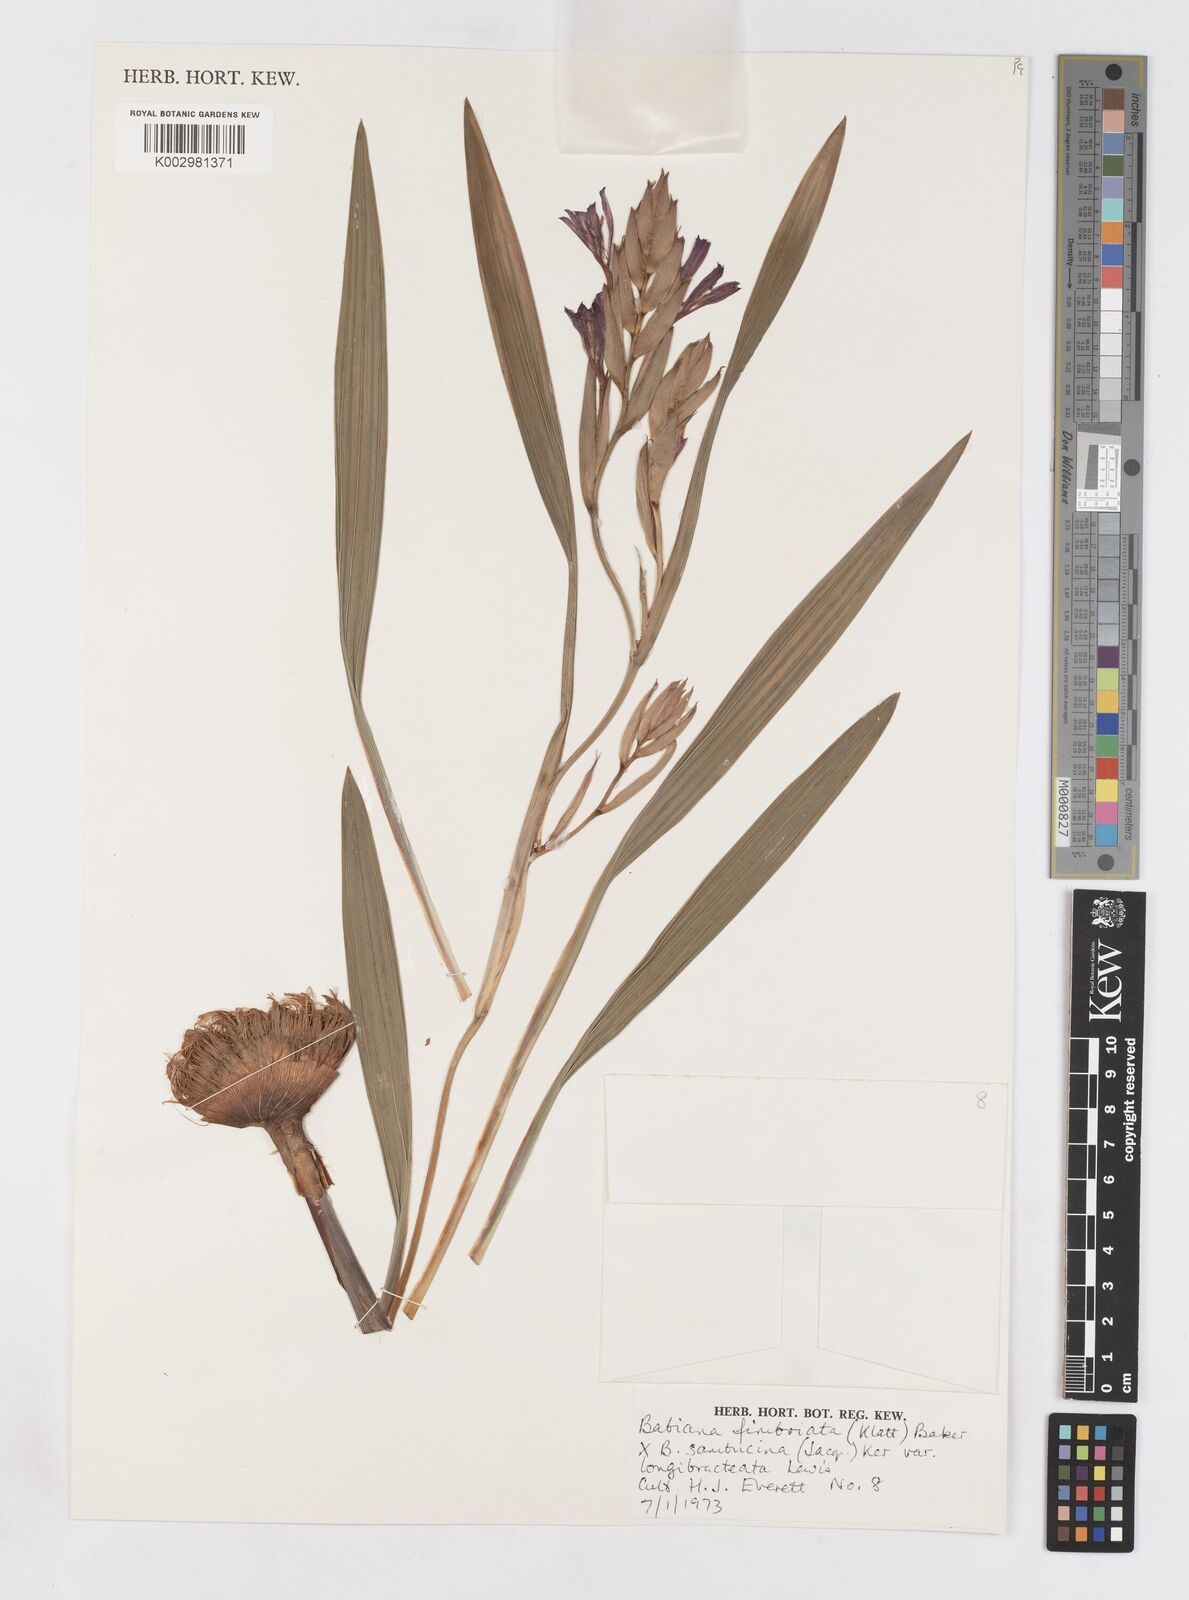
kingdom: Plantae
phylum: Tracheophyta
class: Liliopsida
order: Asparagales
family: Iridaceae
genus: Babiana
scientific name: Babiana fimbriata
